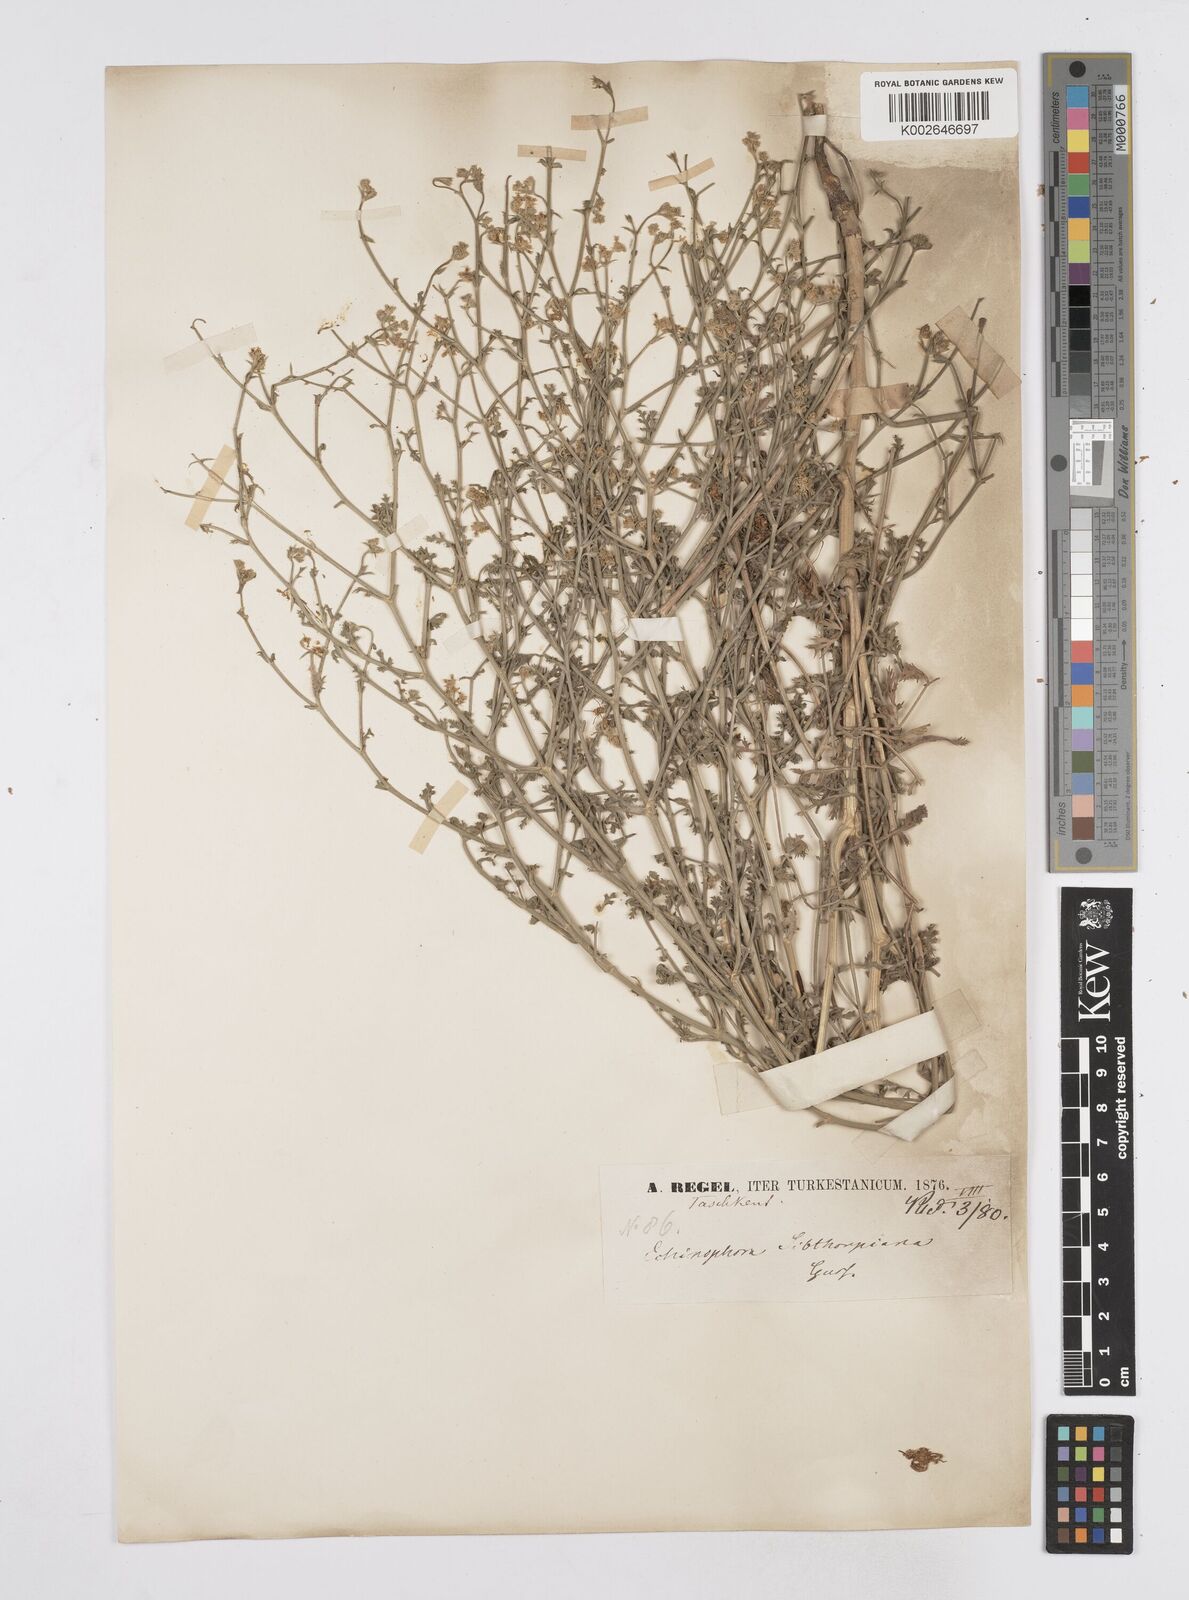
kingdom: Plantae
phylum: Tracheophyta
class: Magnoliopsida
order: Apiales
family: Apiaceae
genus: Echinophora
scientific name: Echinophora tenuifolia
